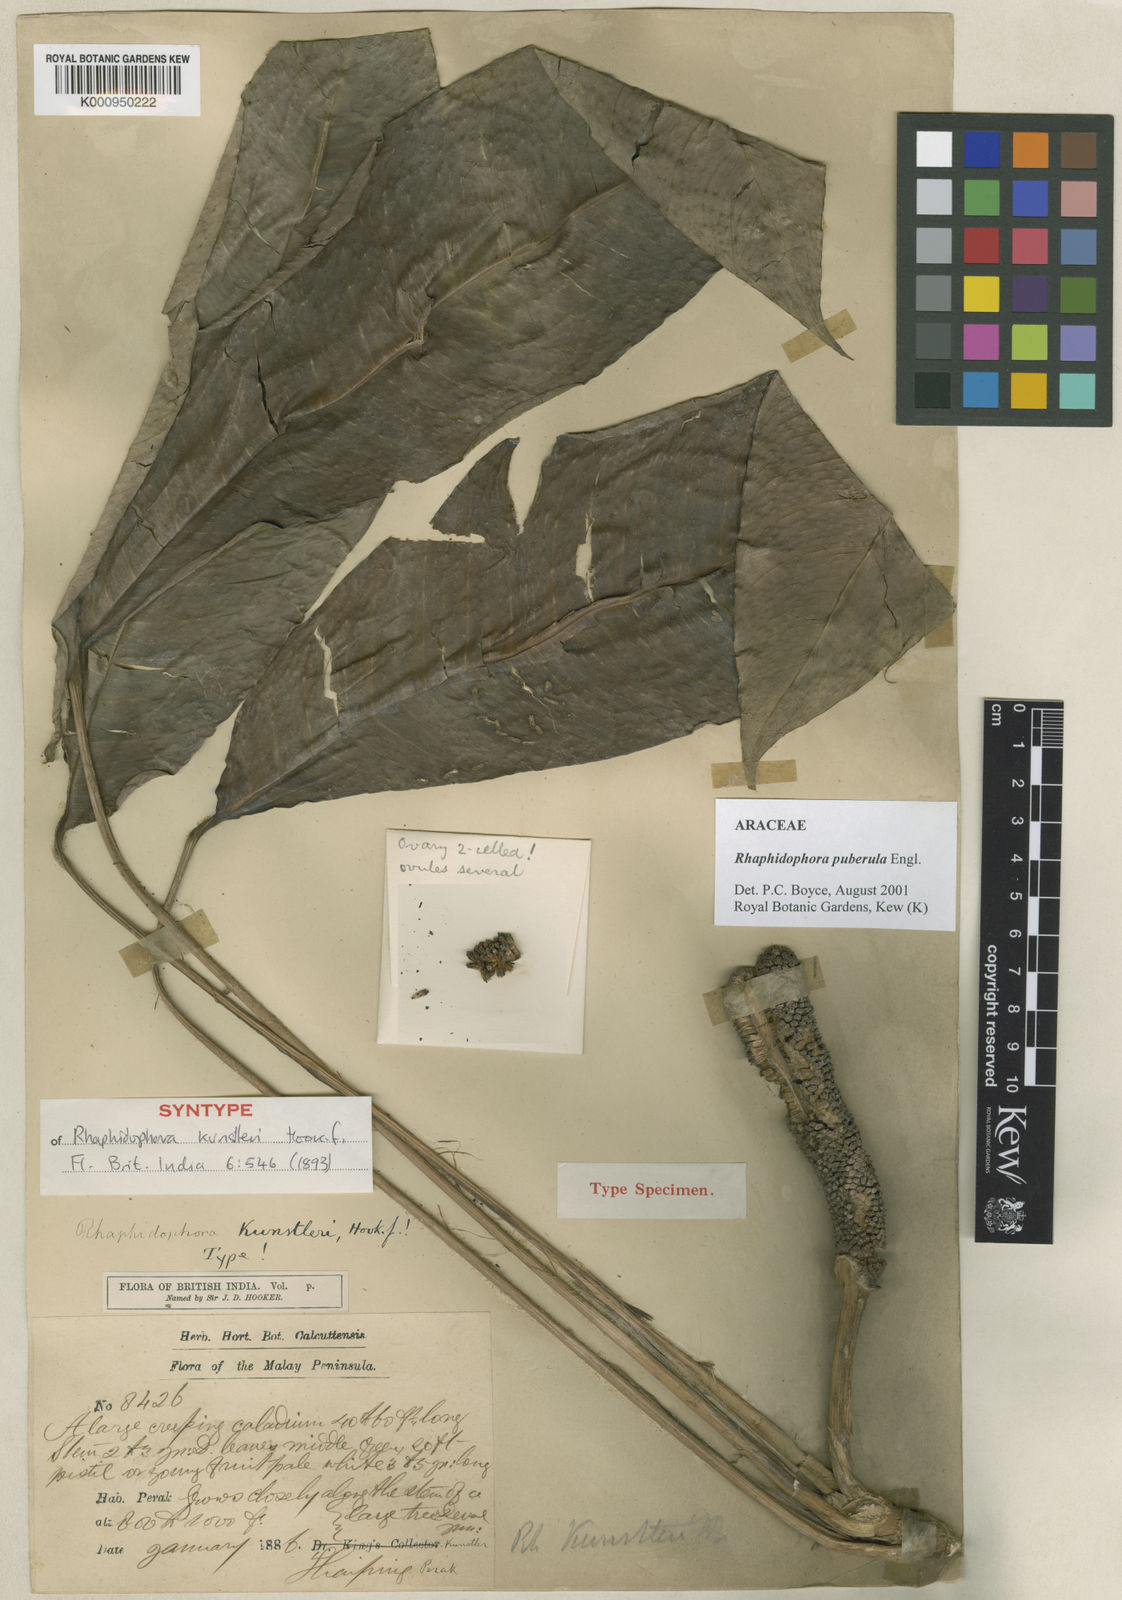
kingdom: Plantae
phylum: Tracheophyta
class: Liliopsida
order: Alismatales
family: Araceae
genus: Rhaphidophora
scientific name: Rhaphidophora puberula
